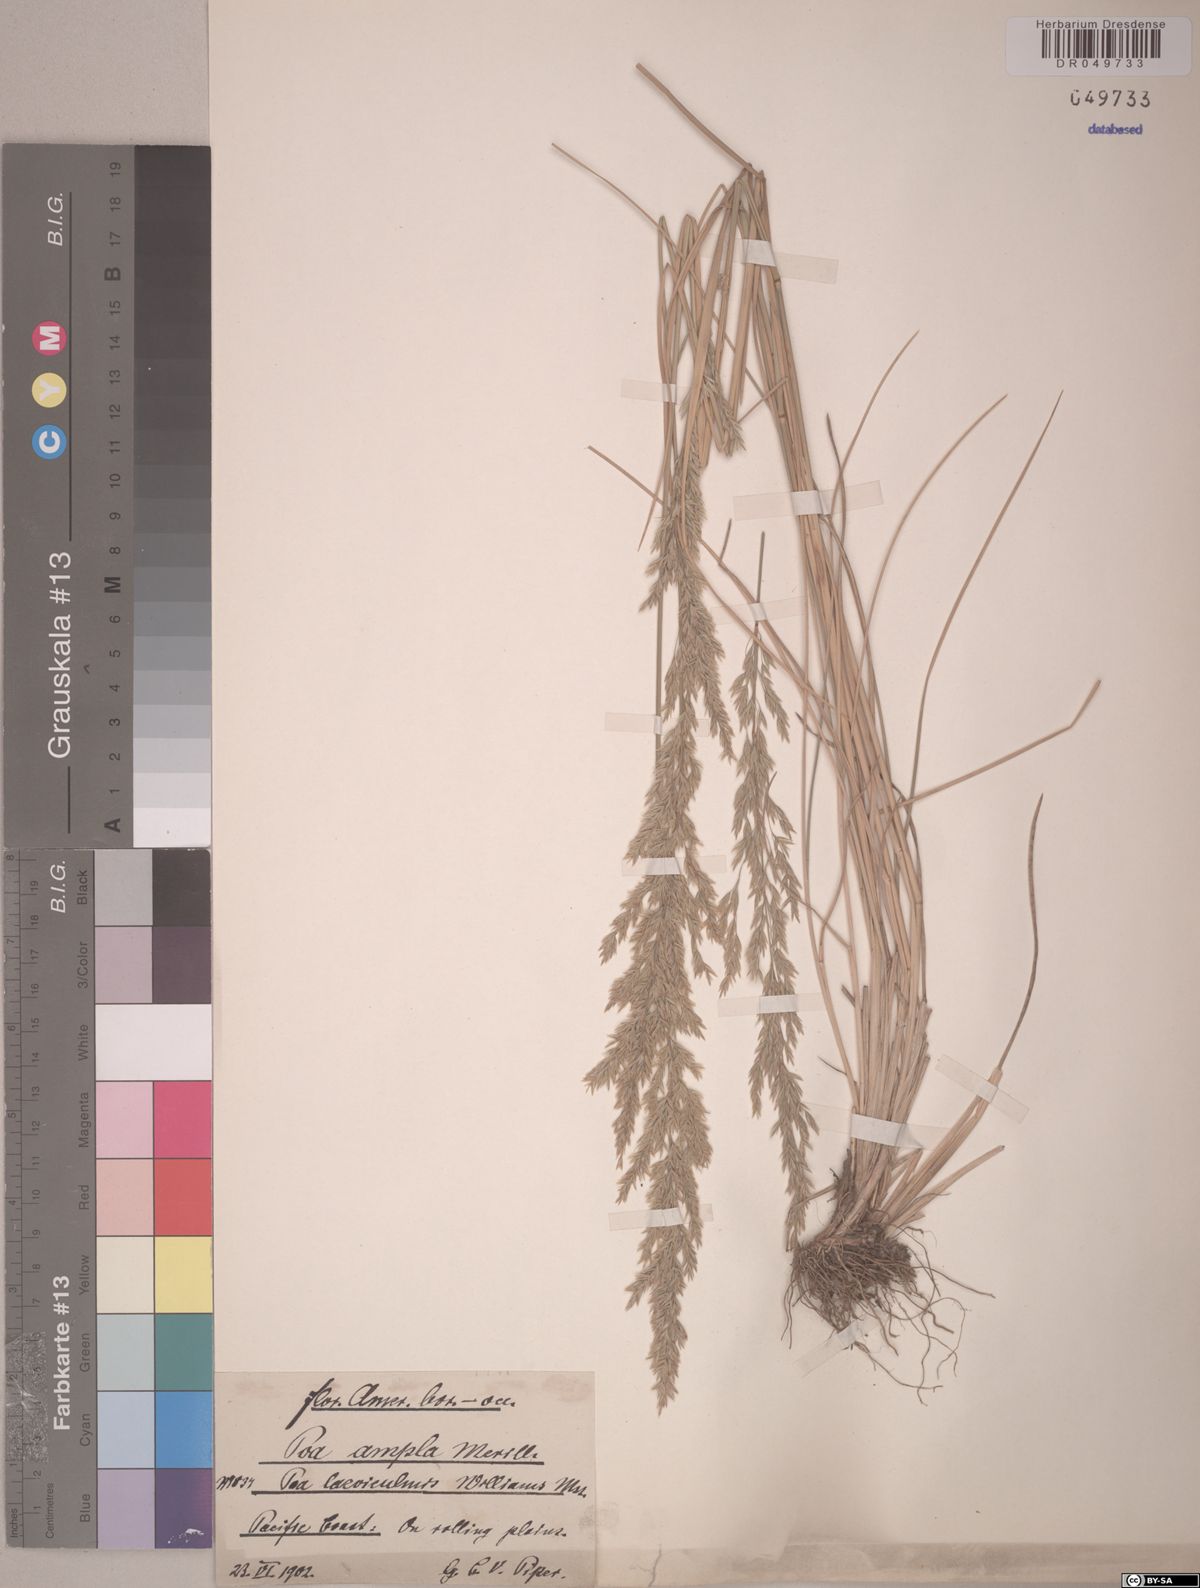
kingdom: Plantae
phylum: Tracheophyta
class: Liliopsida
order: Poales
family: Poaceae
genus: Poa
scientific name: Poa secunda
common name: Sandberg bluegrass
